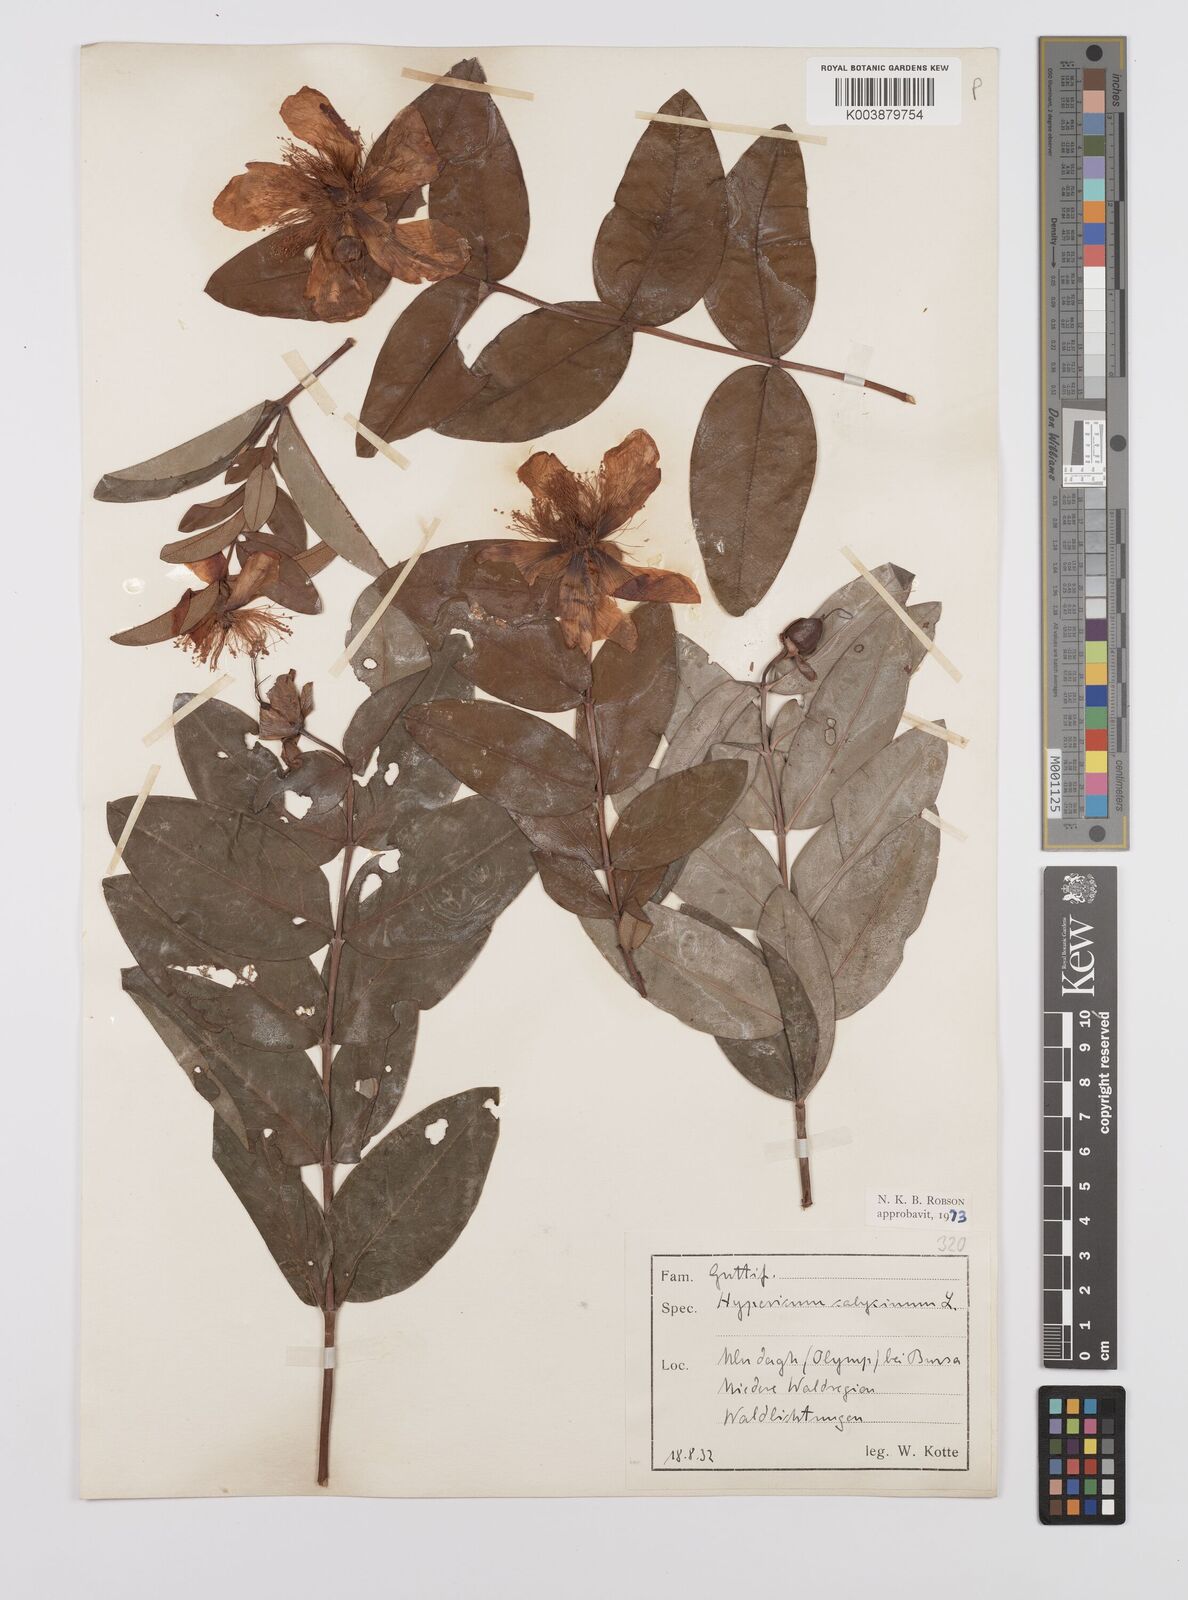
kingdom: Plantae
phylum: Tracheophyta
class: Magnoliopsida
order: Malpighiales
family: Hypericaceae
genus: Hypericum
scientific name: Hypericum calycinum
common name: Rose-of-sharon
